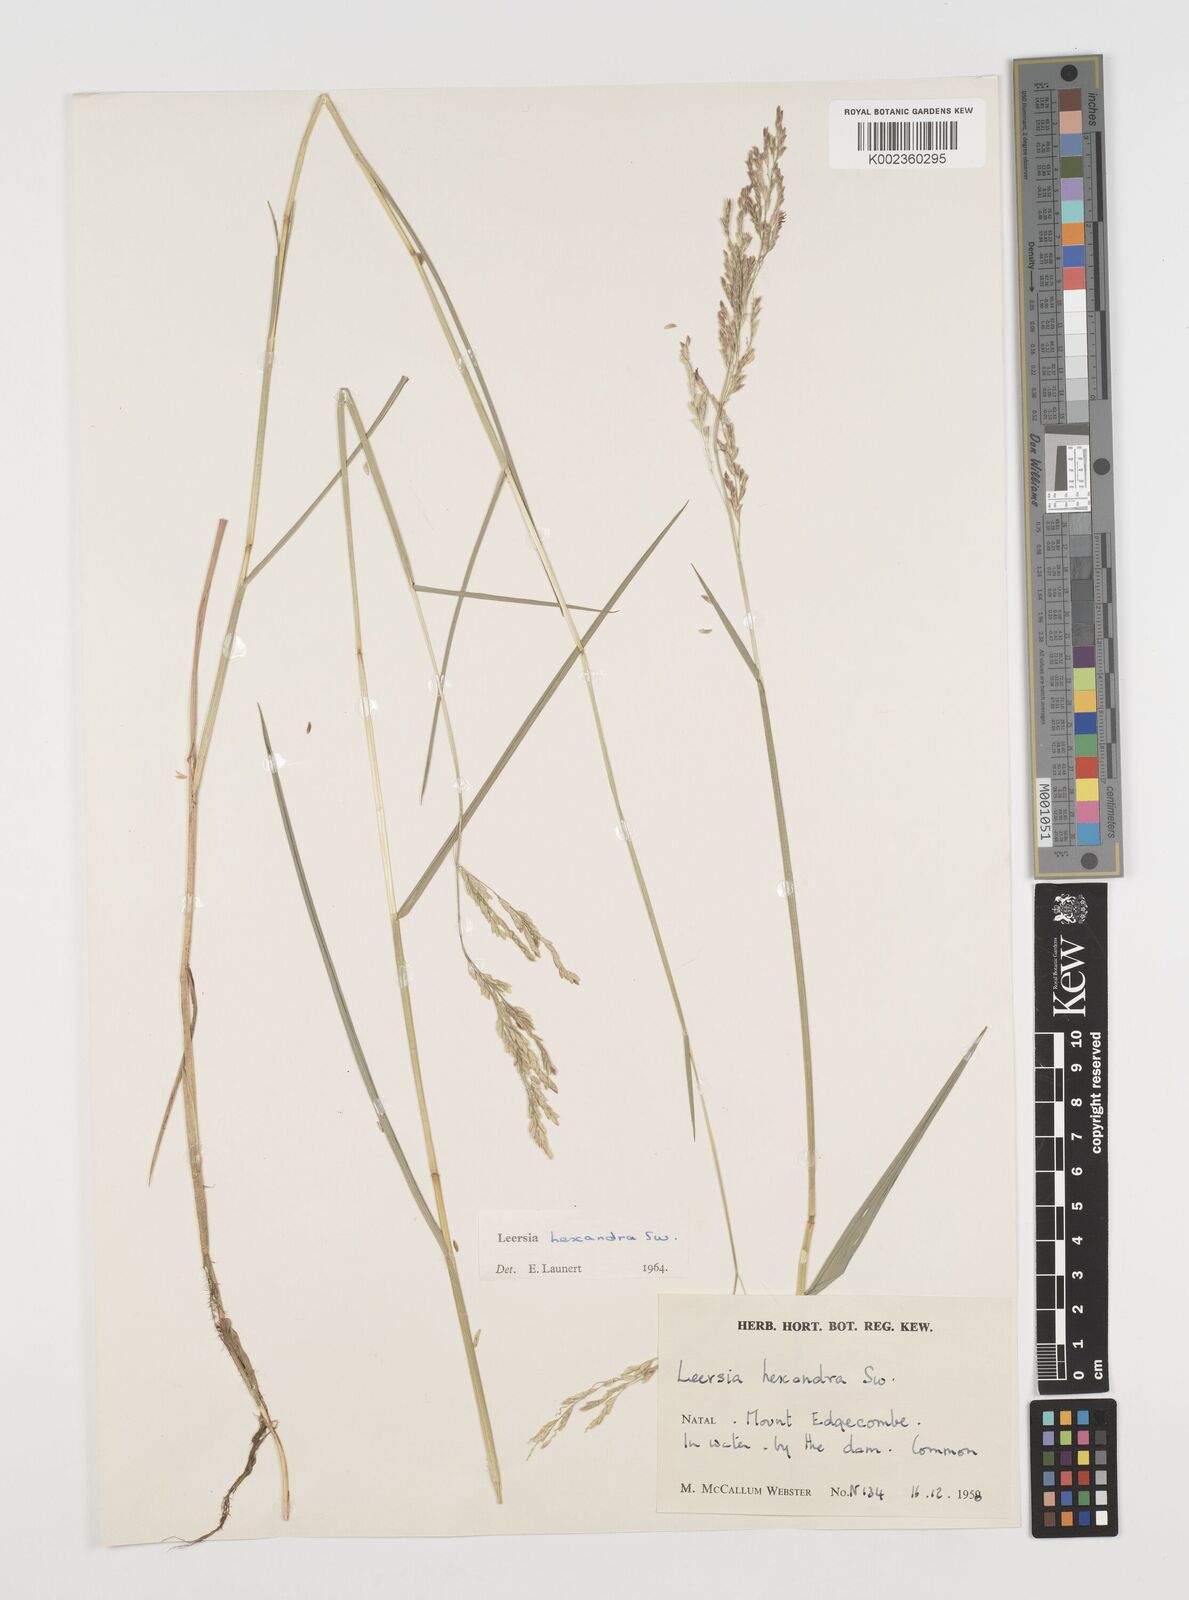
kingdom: Plantae
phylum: Tracheophyta
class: Liliopsida
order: Poales
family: Poaceae
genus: Leersia
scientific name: Leersia hexandra
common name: Southern cut grass
